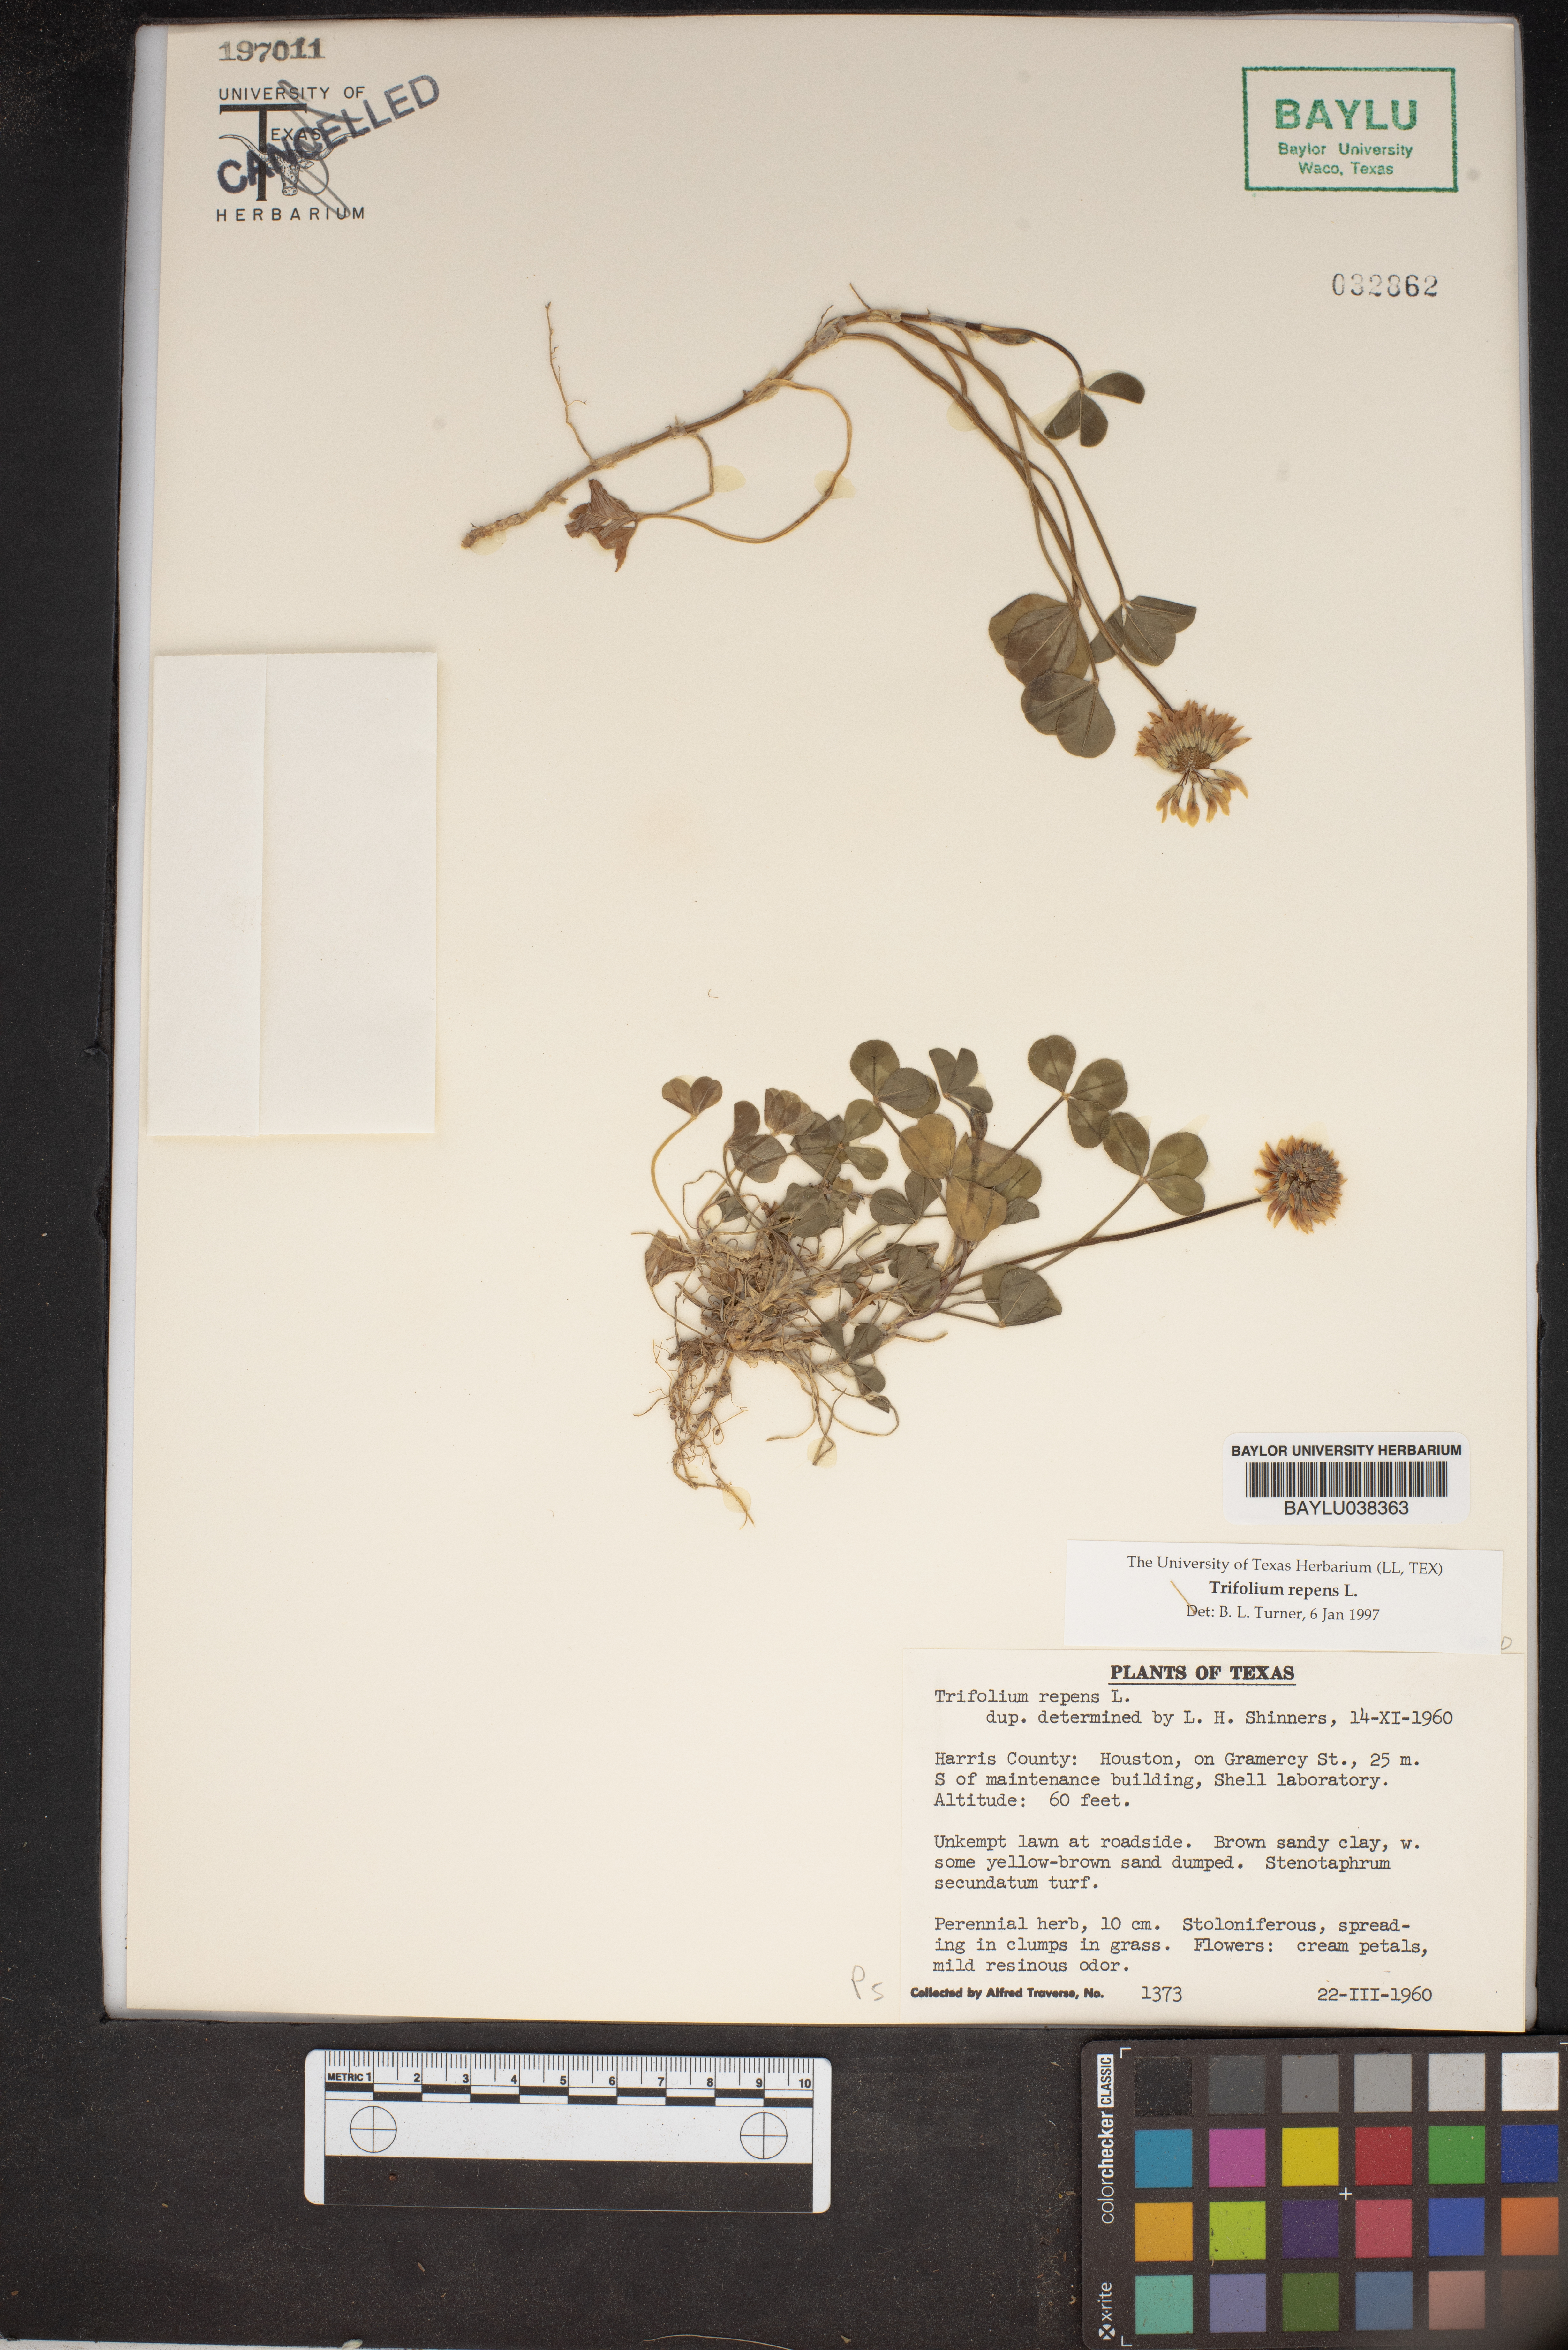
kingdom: Plantae
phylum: Tracheophyta
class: Magnoliopsida
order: Fabales
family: Fabaceae
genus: Trifolium
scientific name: Trifolium repens
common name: White clover
